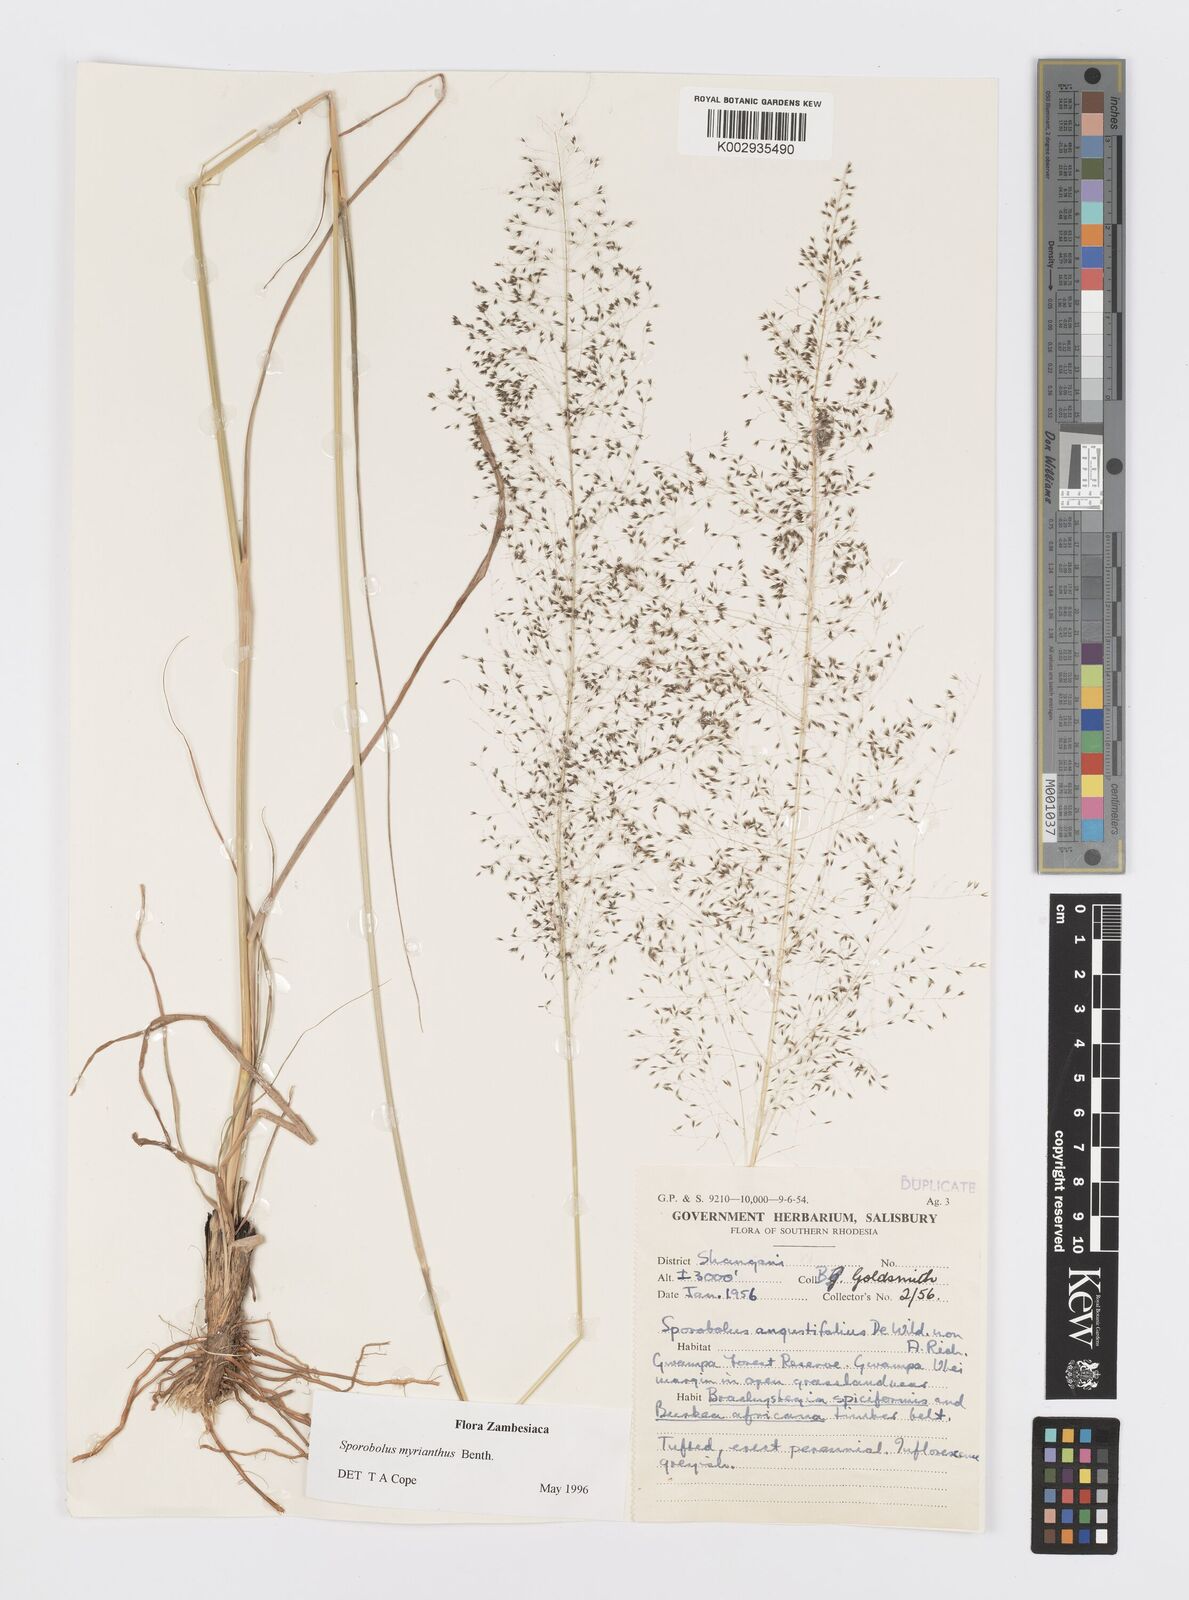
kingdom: Plantae
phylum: Tracheophyta
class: Liliopsida
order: Poales
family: Poaceae
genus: Sporobolus
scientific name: Sporobolus myrianthus
